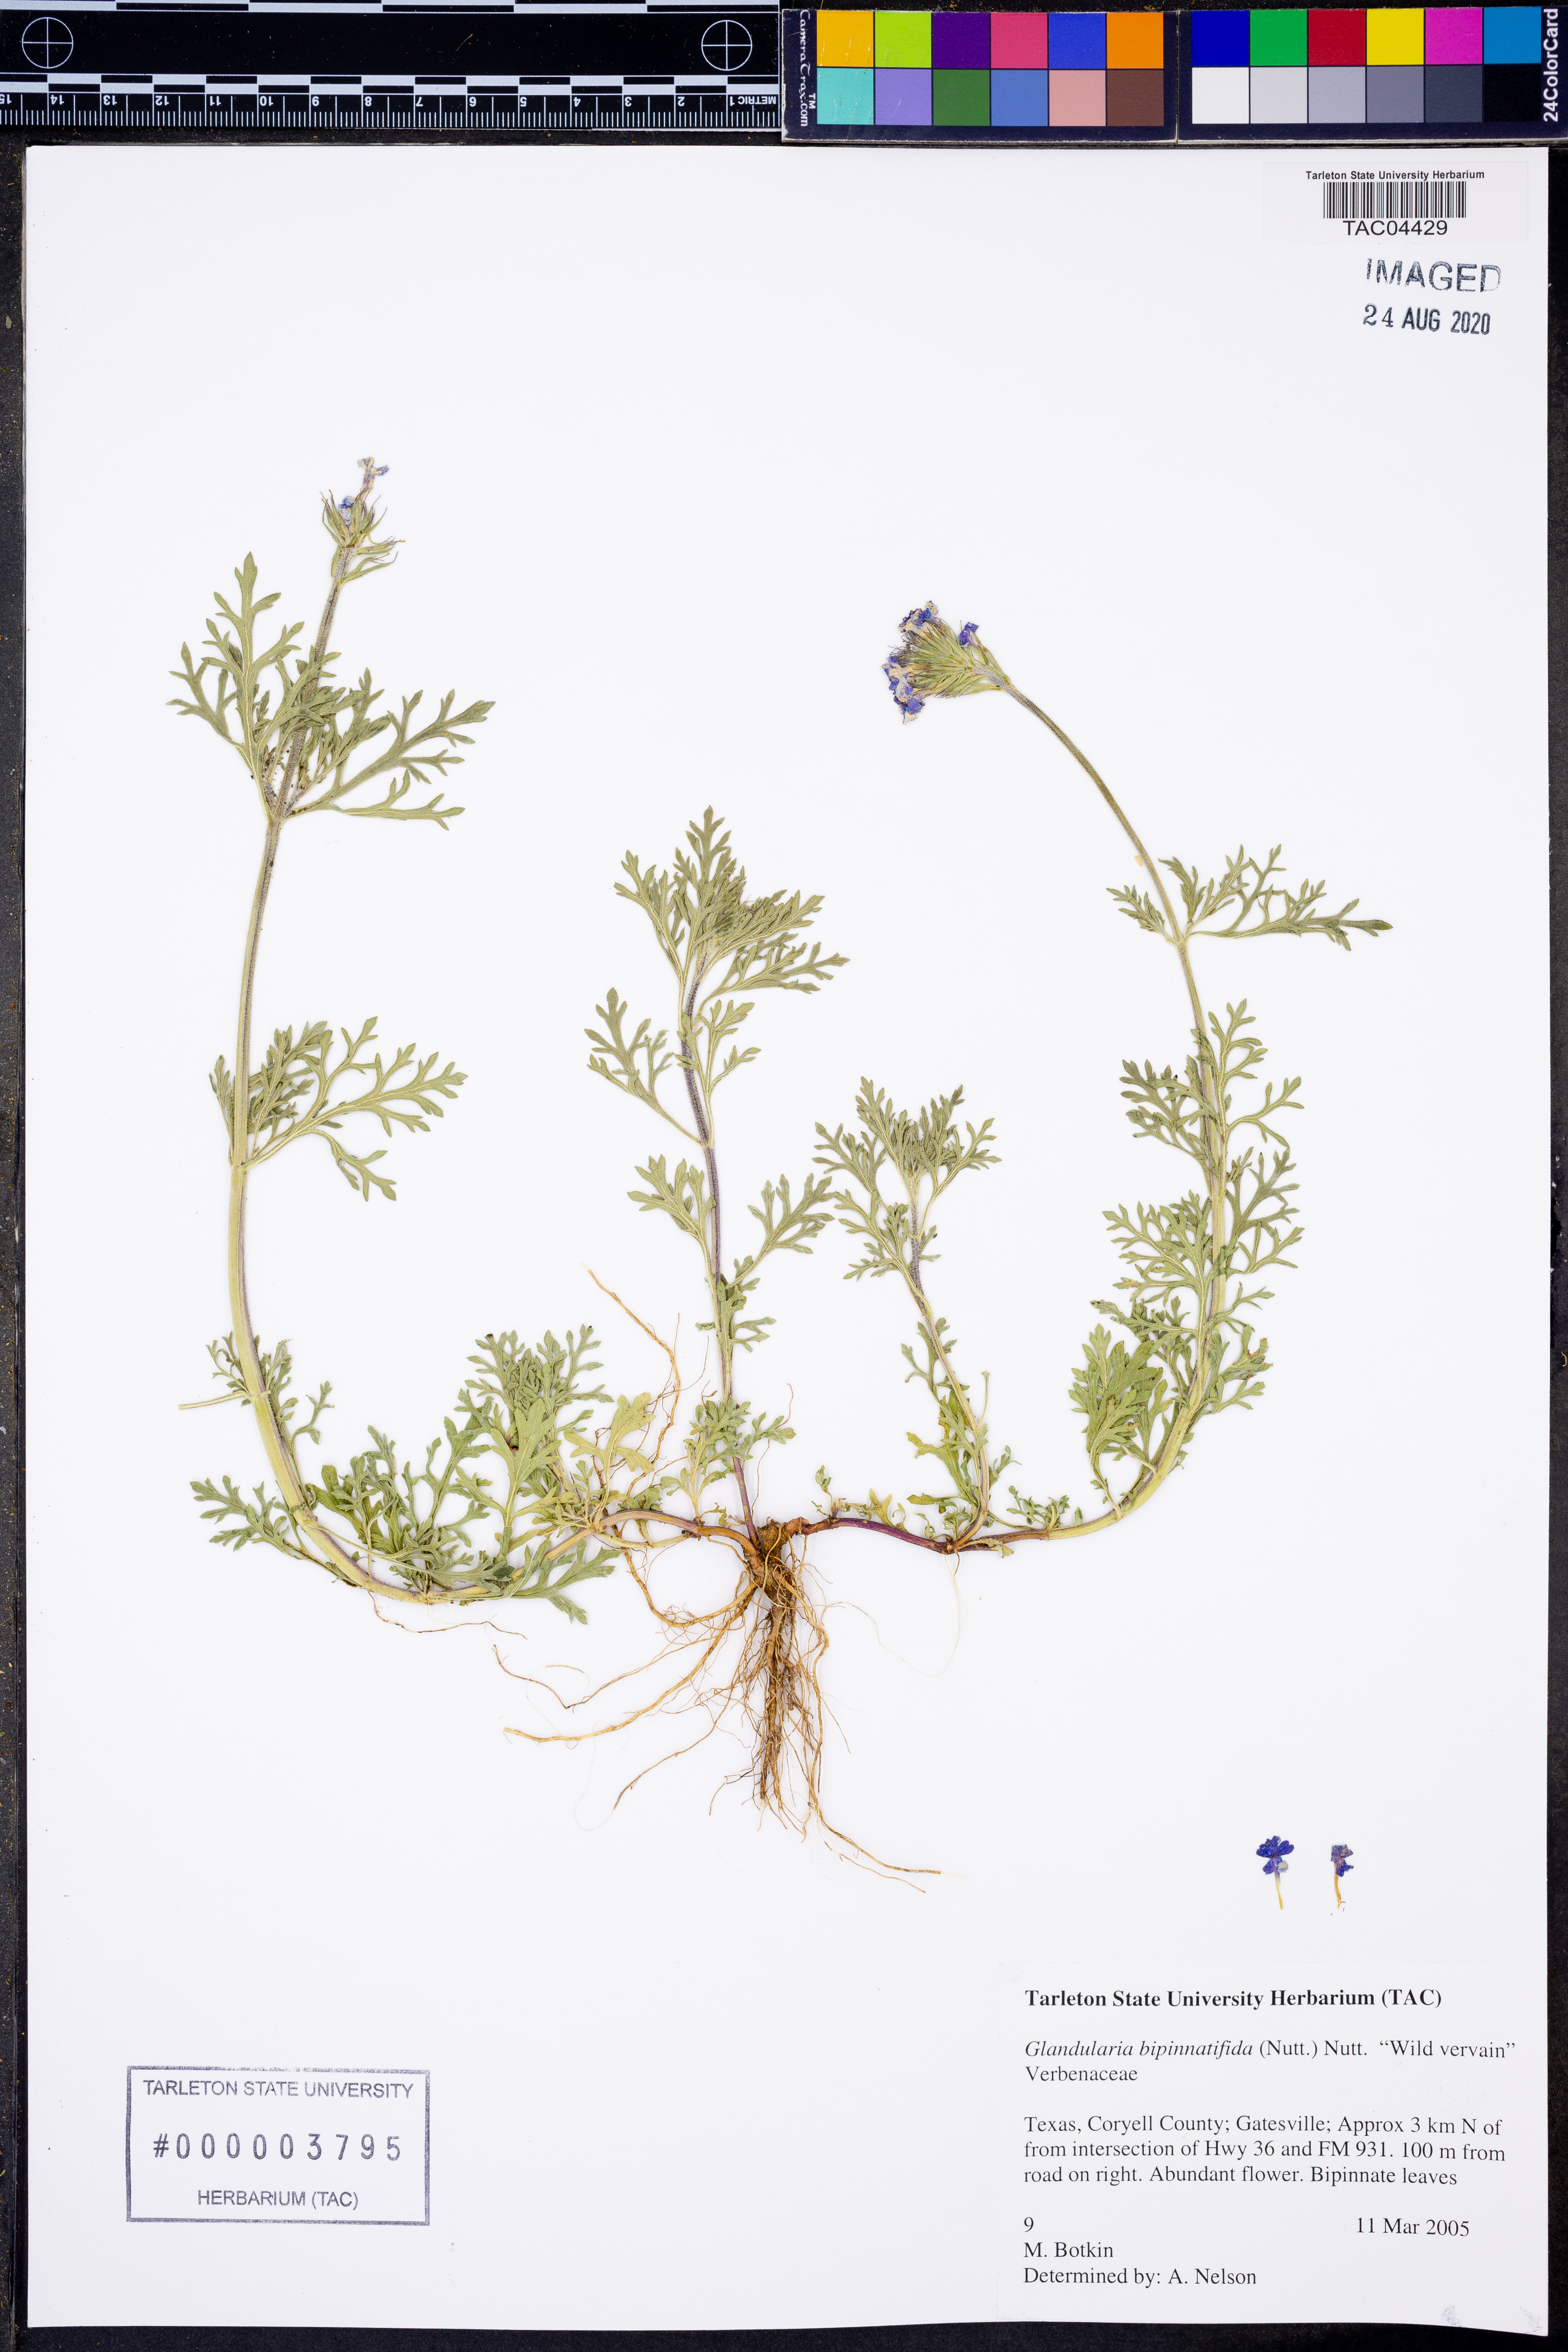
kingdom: Plantae
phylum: Tracheophyta
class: Magnoliopsida
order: Lamiales
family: Verbenaceae
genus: Verbena
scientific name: Verbena bipinnatifida
